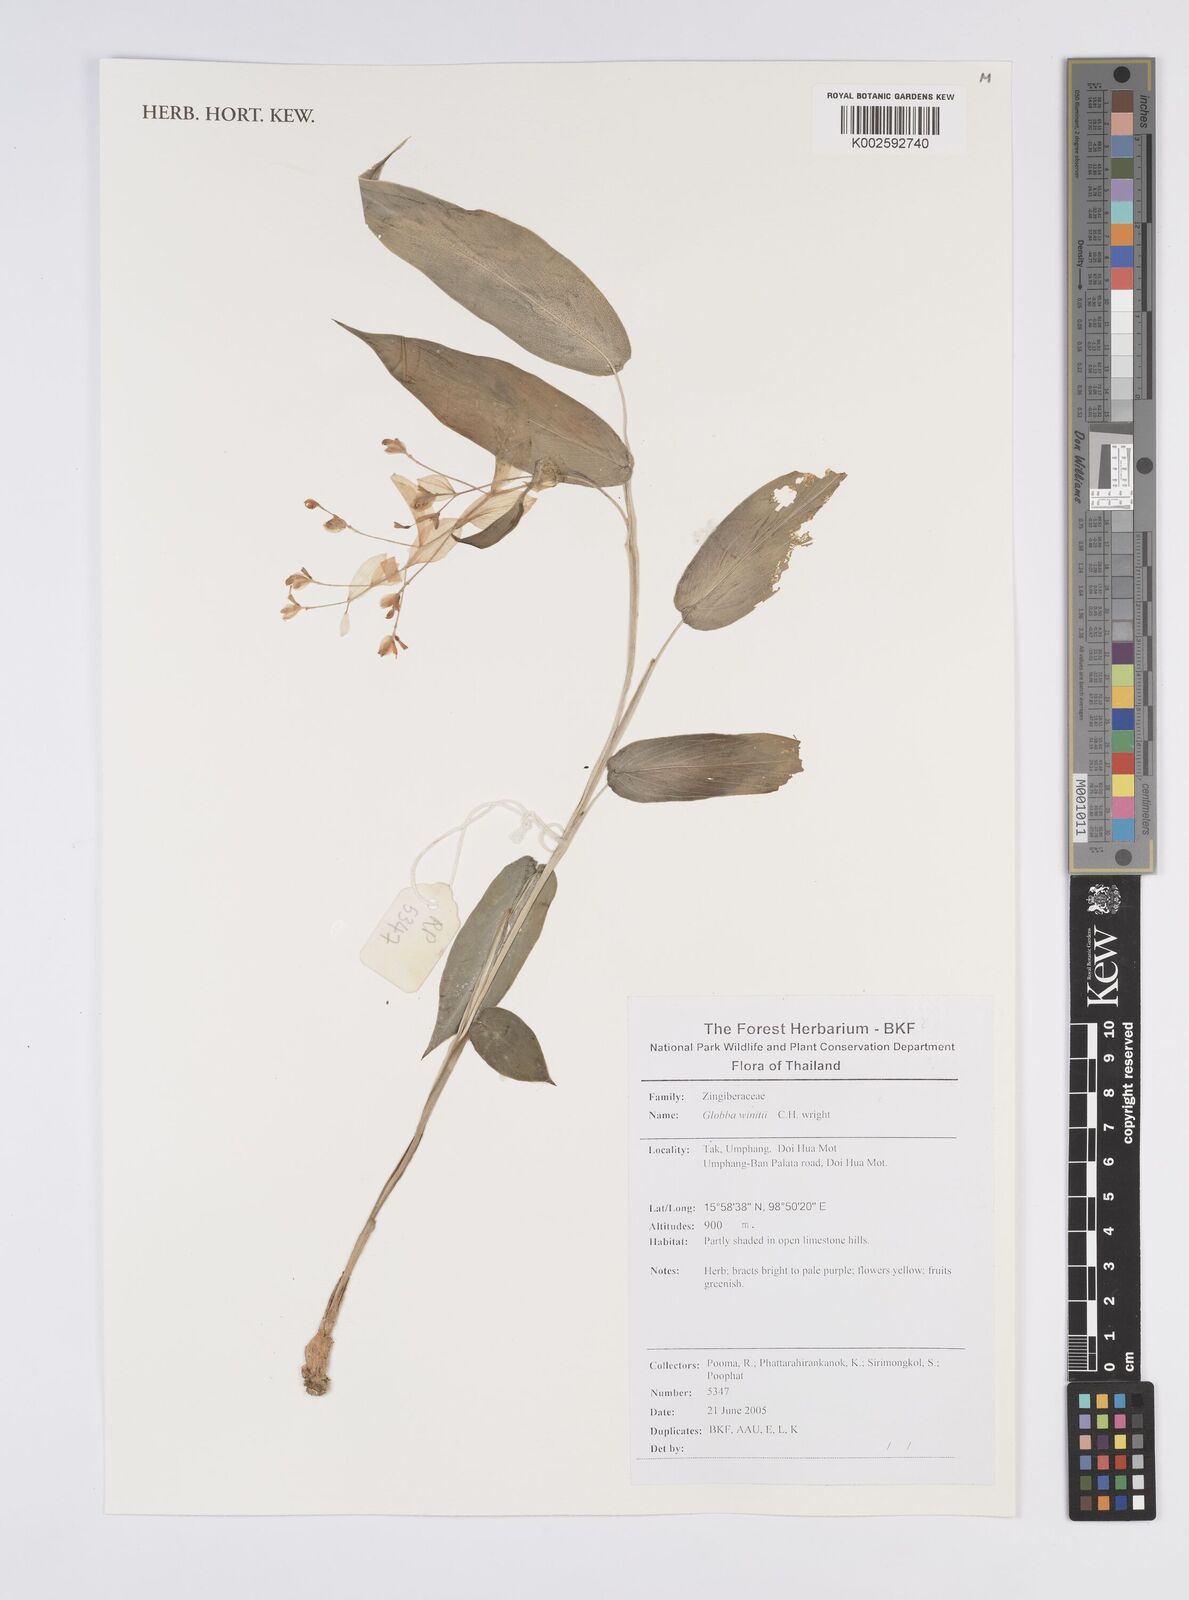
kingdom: Plantae
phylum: Tracheophyta
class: Liliopsida
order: Zingiberales
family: Zingiberaceae
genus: Globba
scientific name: Globba winitii
